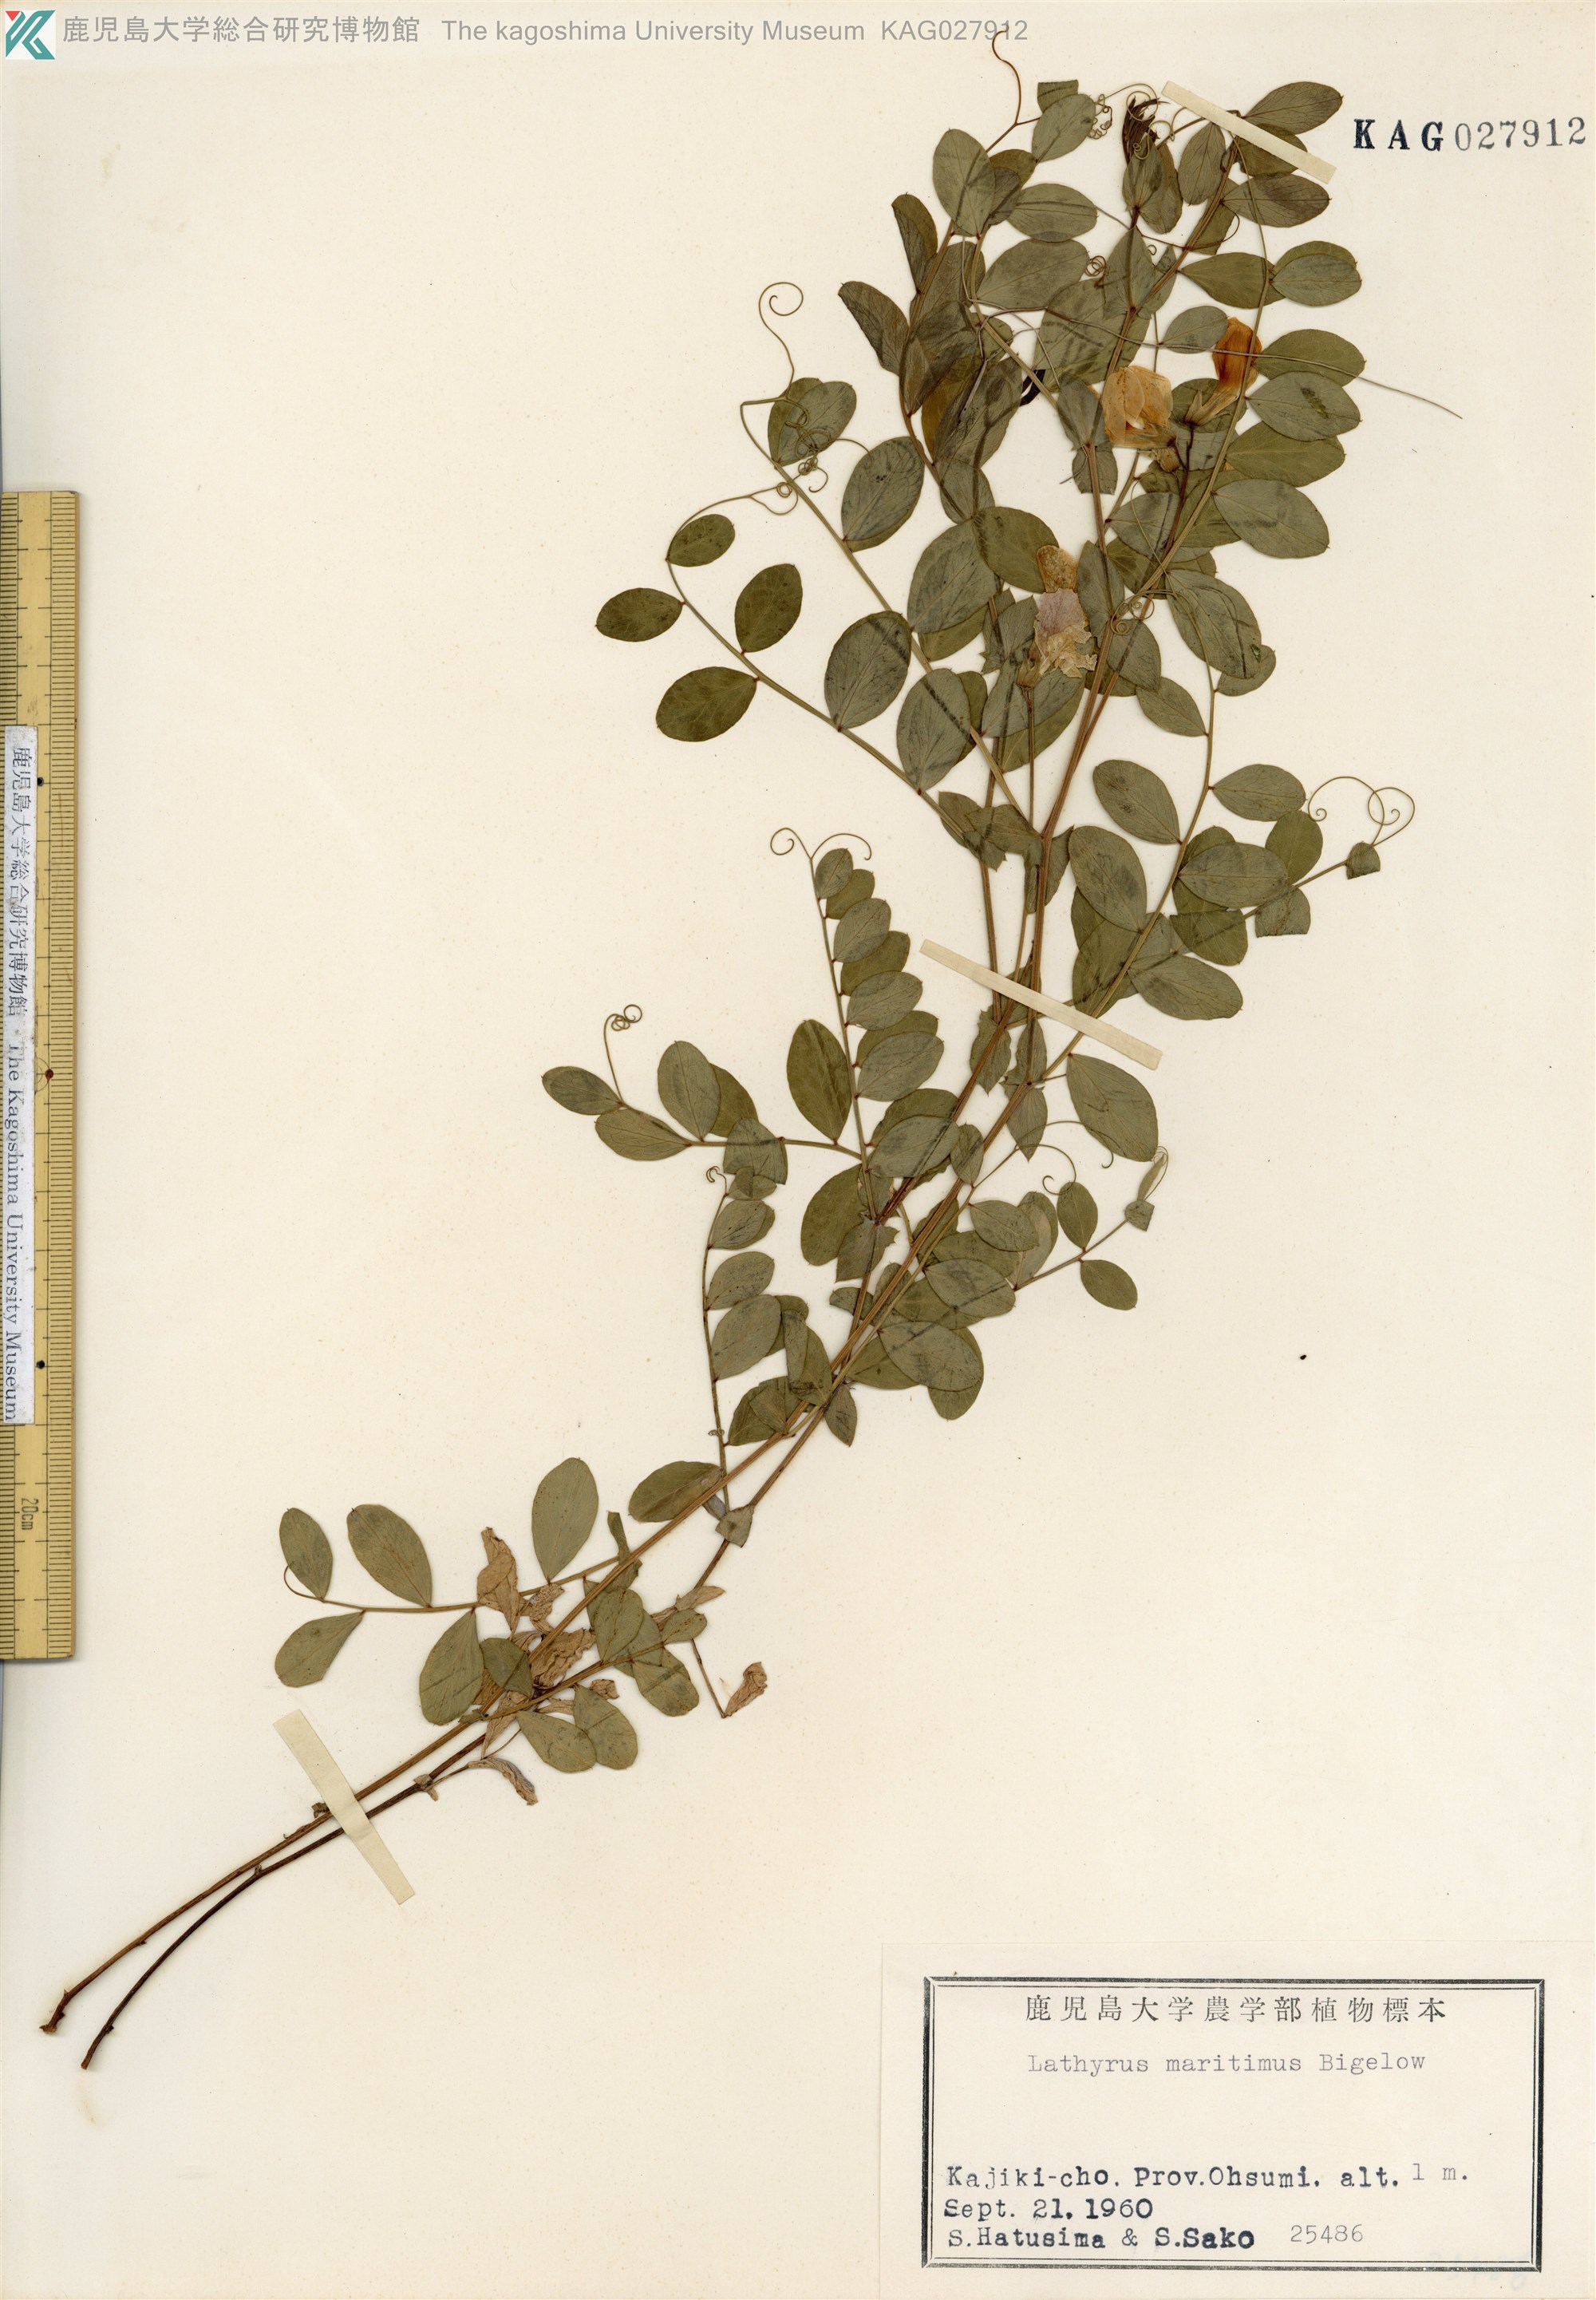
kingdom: Plantae
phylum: Tracheophyta
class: Magnoliopsida
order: Fabales
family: Fabaceae
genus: Lathyrus
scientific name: Lathyrus japonicus
